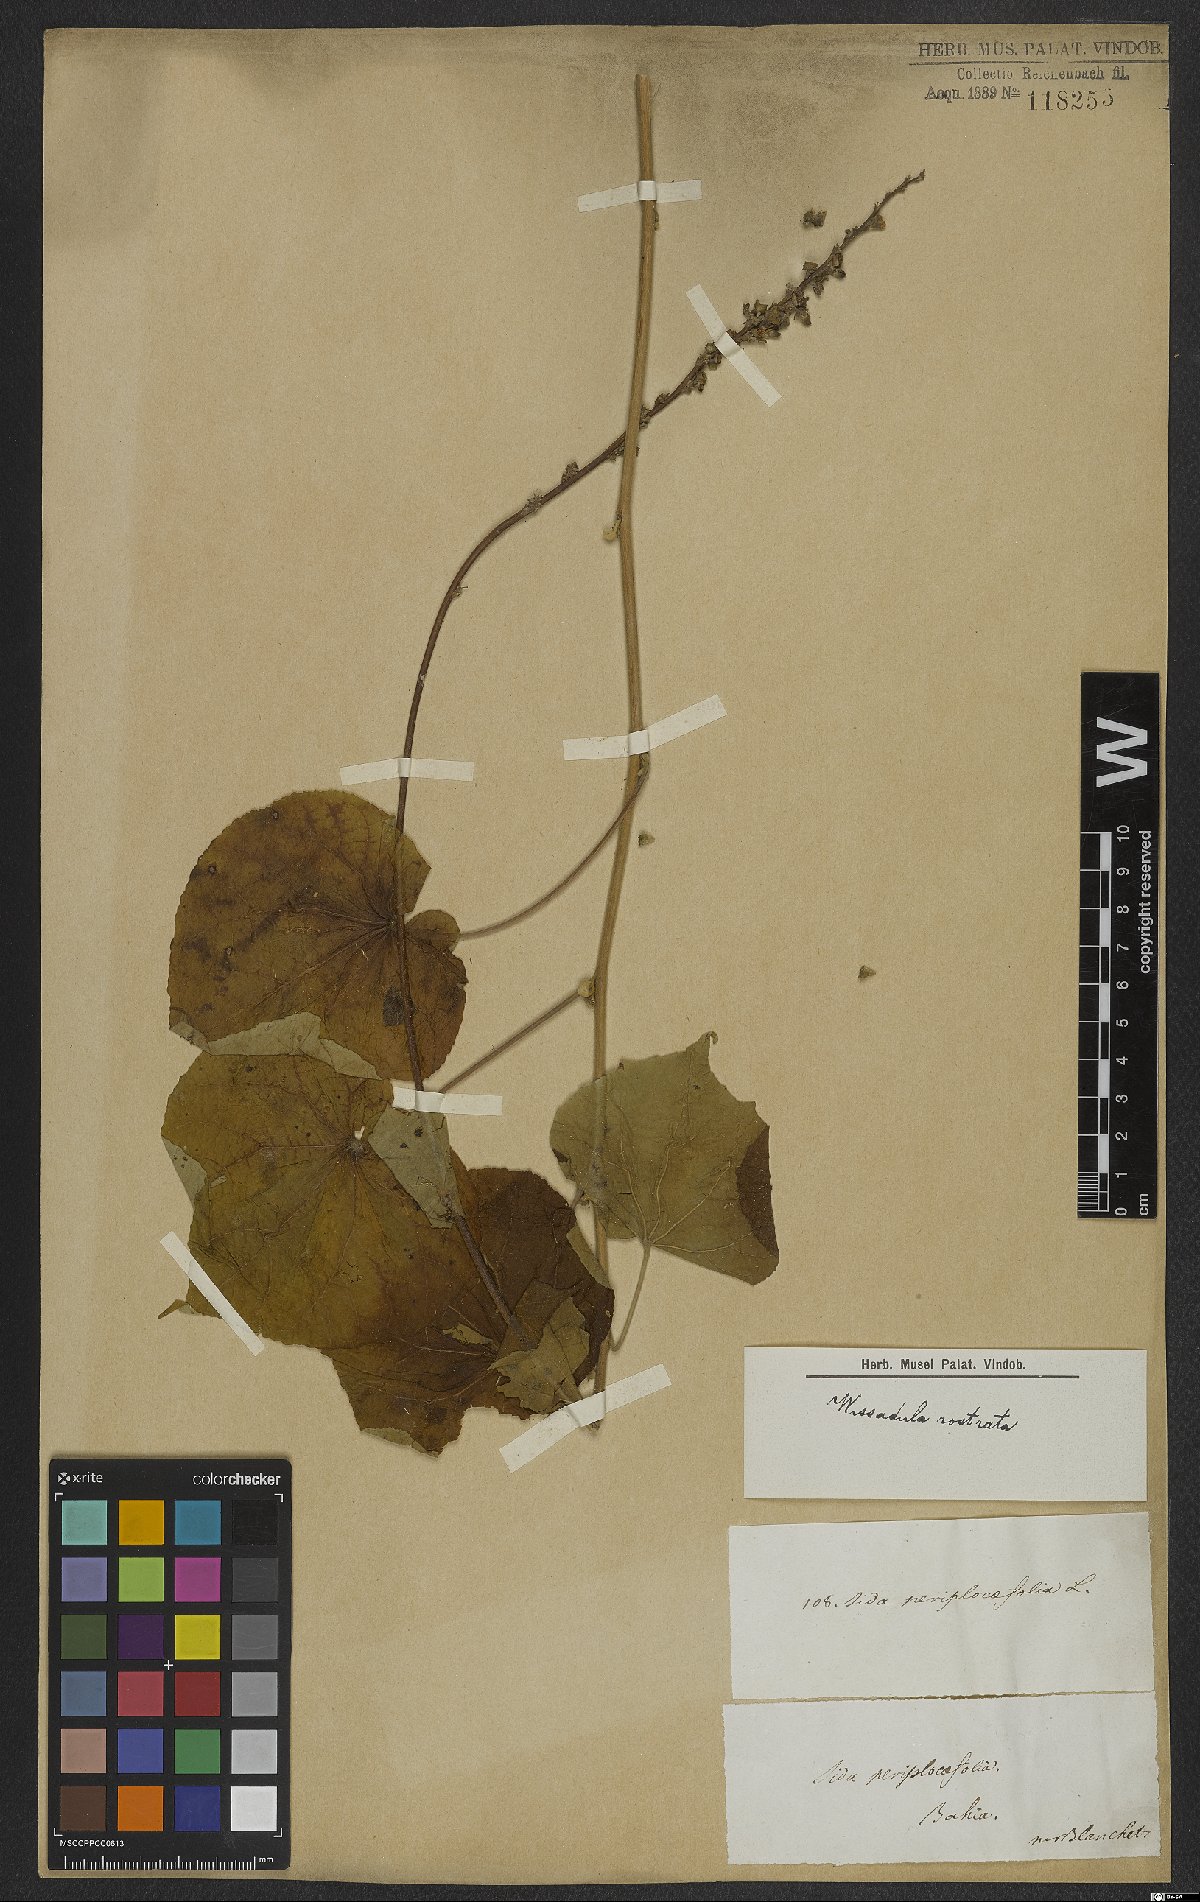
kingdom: Plantae
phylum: Tracheophyta
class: Magnoliopsida
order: Malvales
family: Malvaceae
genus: Wissadula
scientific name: Wissadula periplocifolia
